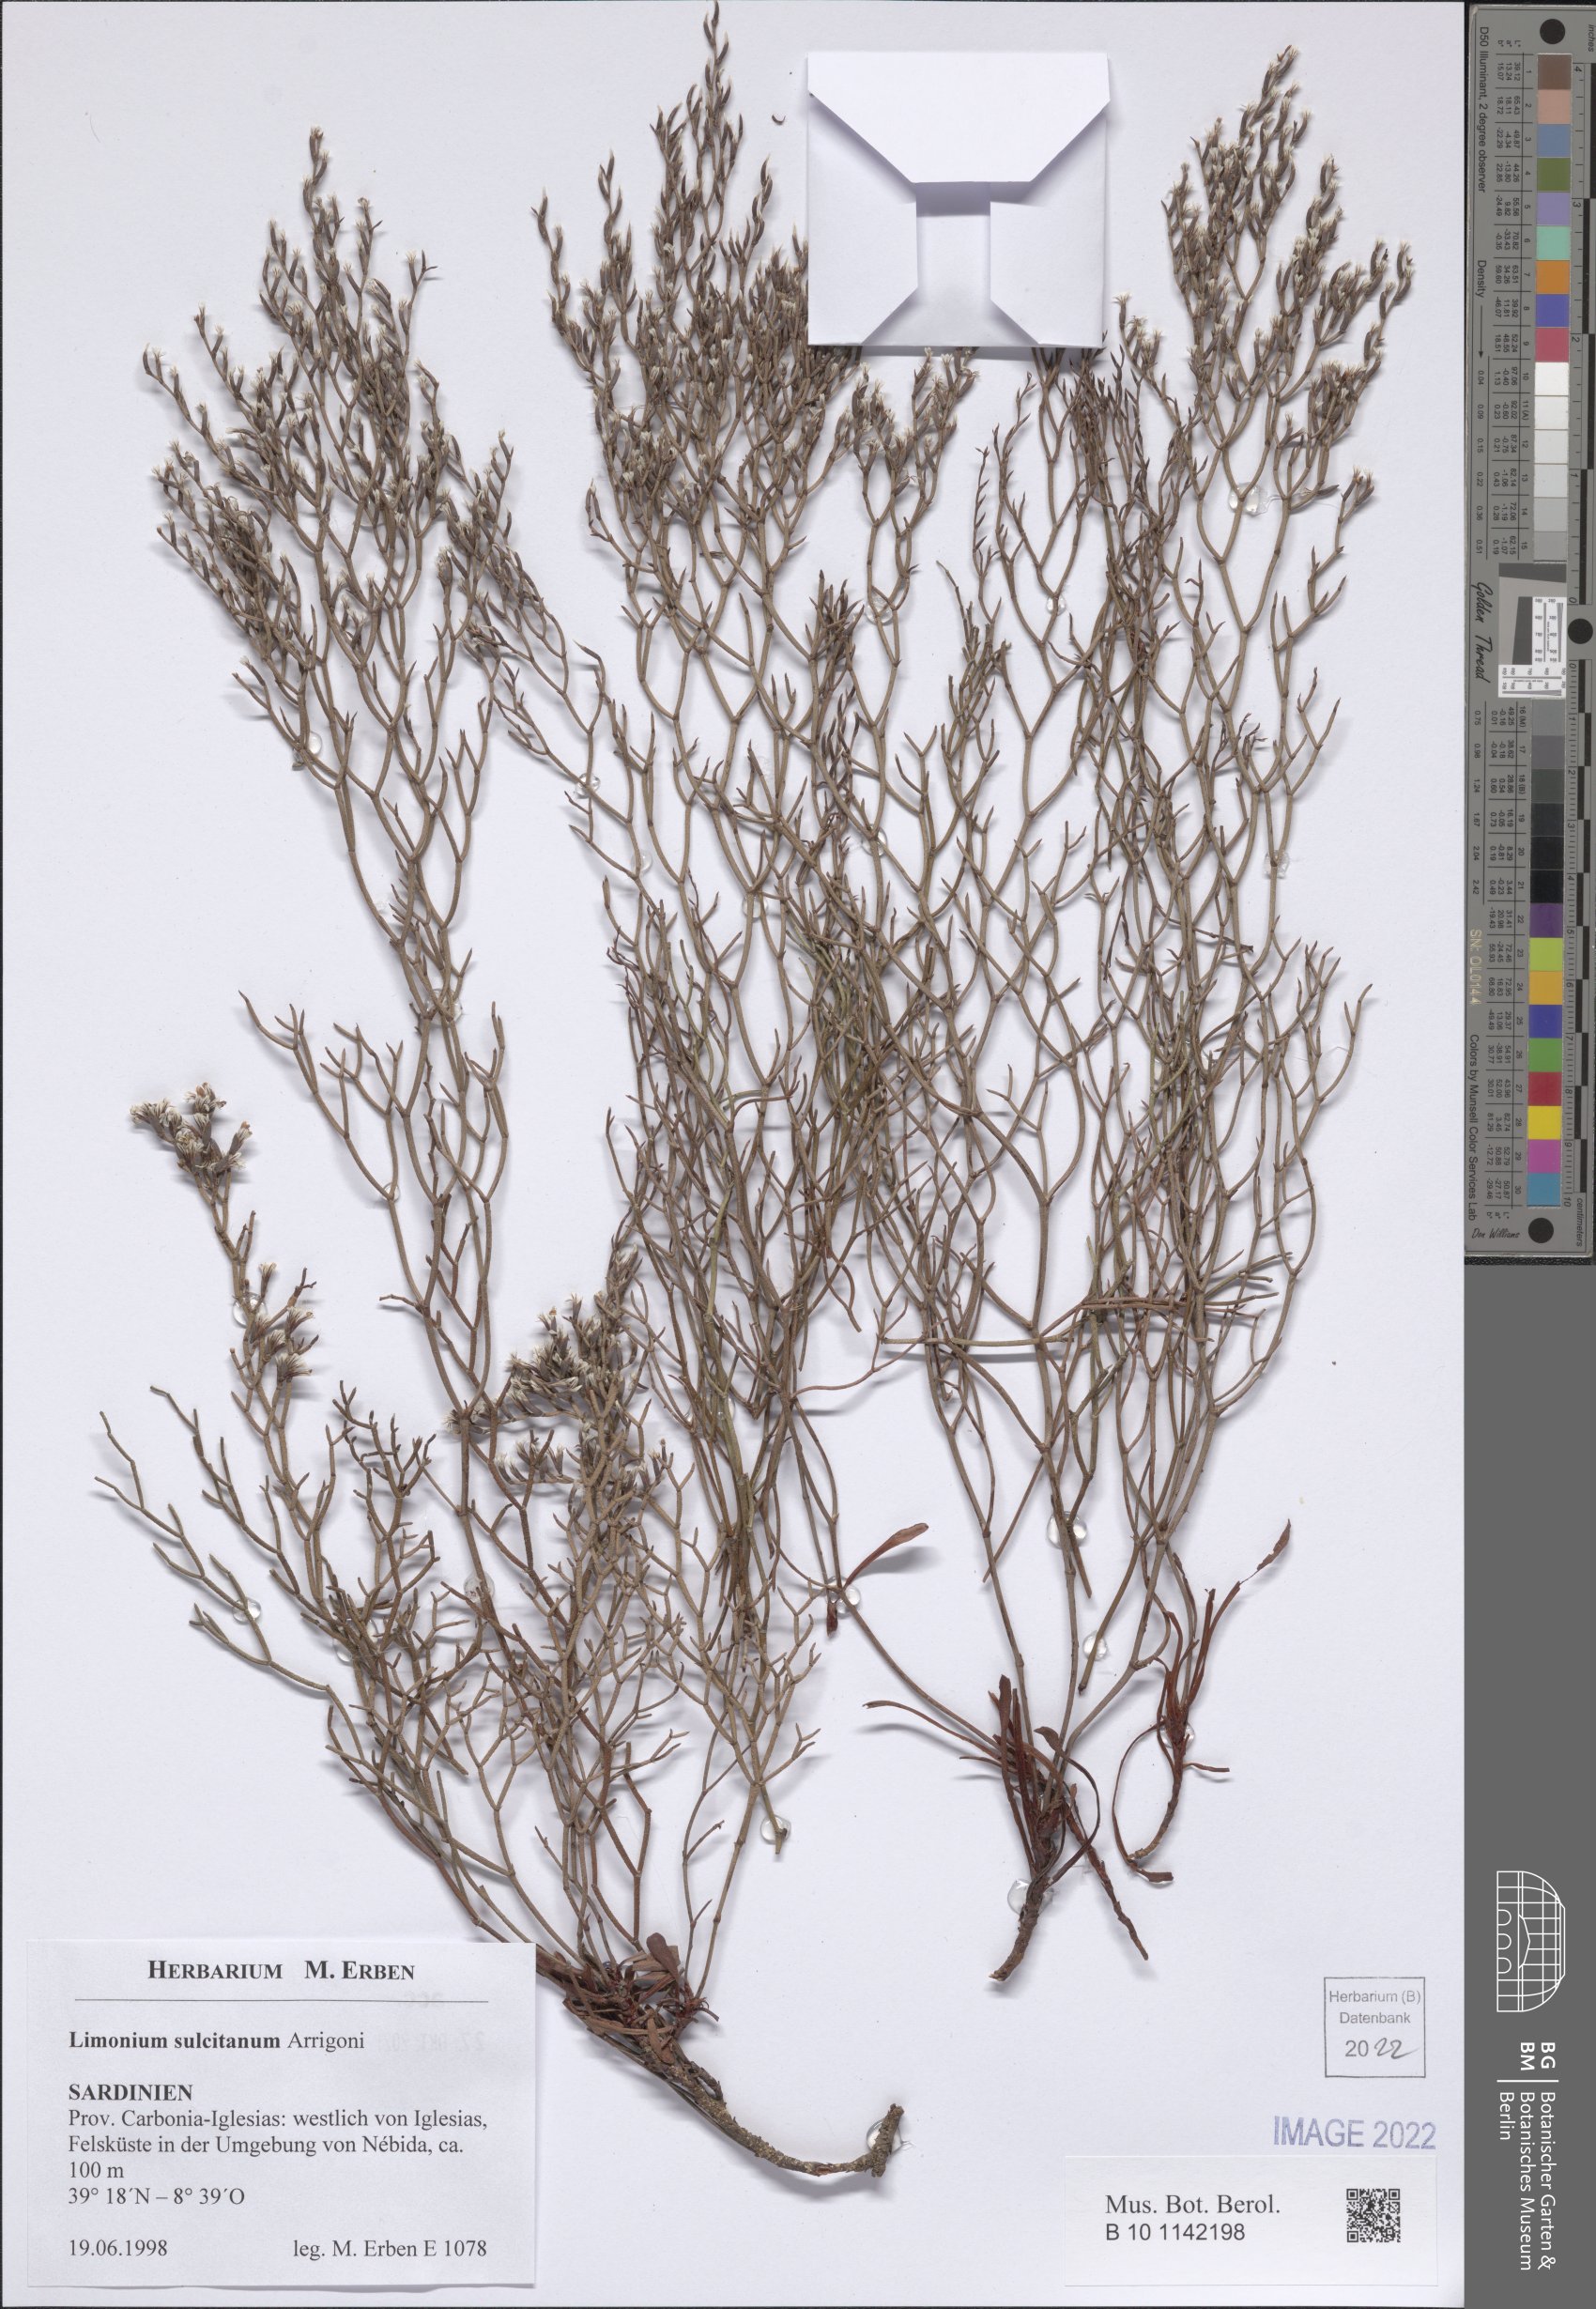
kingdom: Plantae
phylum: Tracheophyta
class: Magnoliopsida
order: Caryophyllales
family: Plumbaginaceae
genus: Limonium
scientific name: Limonium sulcitanum
